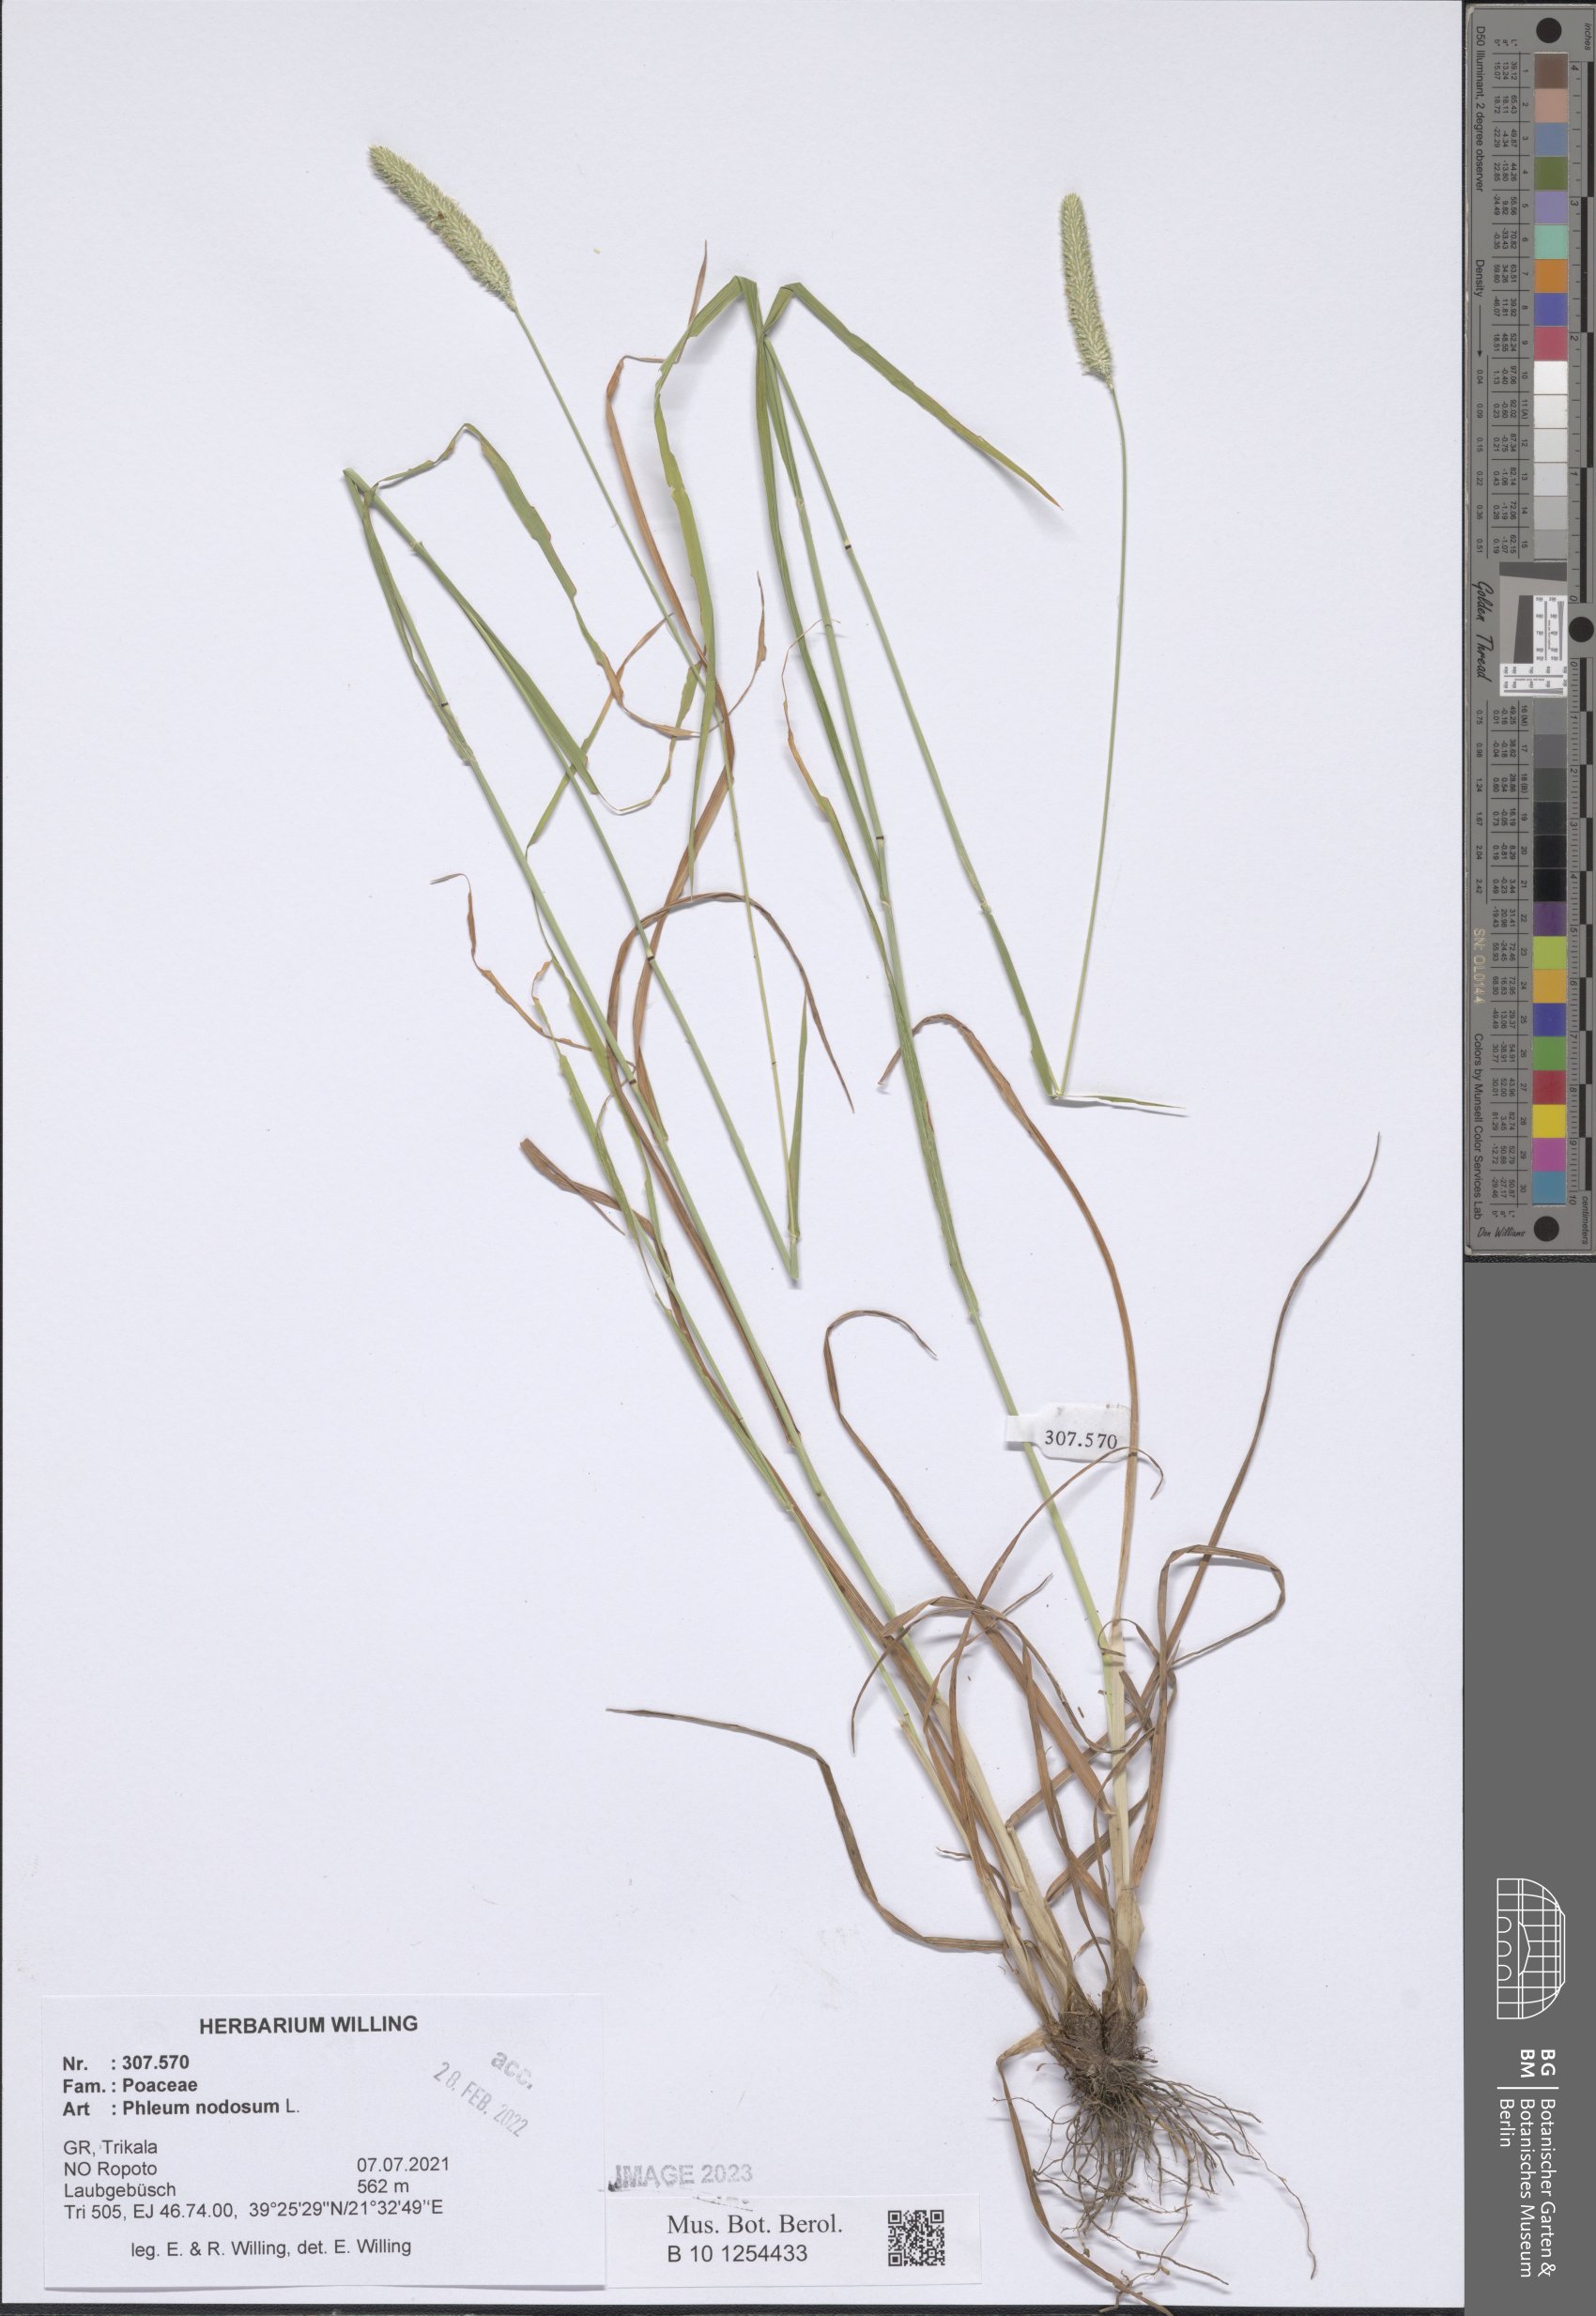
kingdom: Plantae
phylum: Tracheophyta
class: Liliopsida
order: Poales
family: Poaceae
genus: Phleum
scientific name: Phleum pratense
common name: Timothy grass
